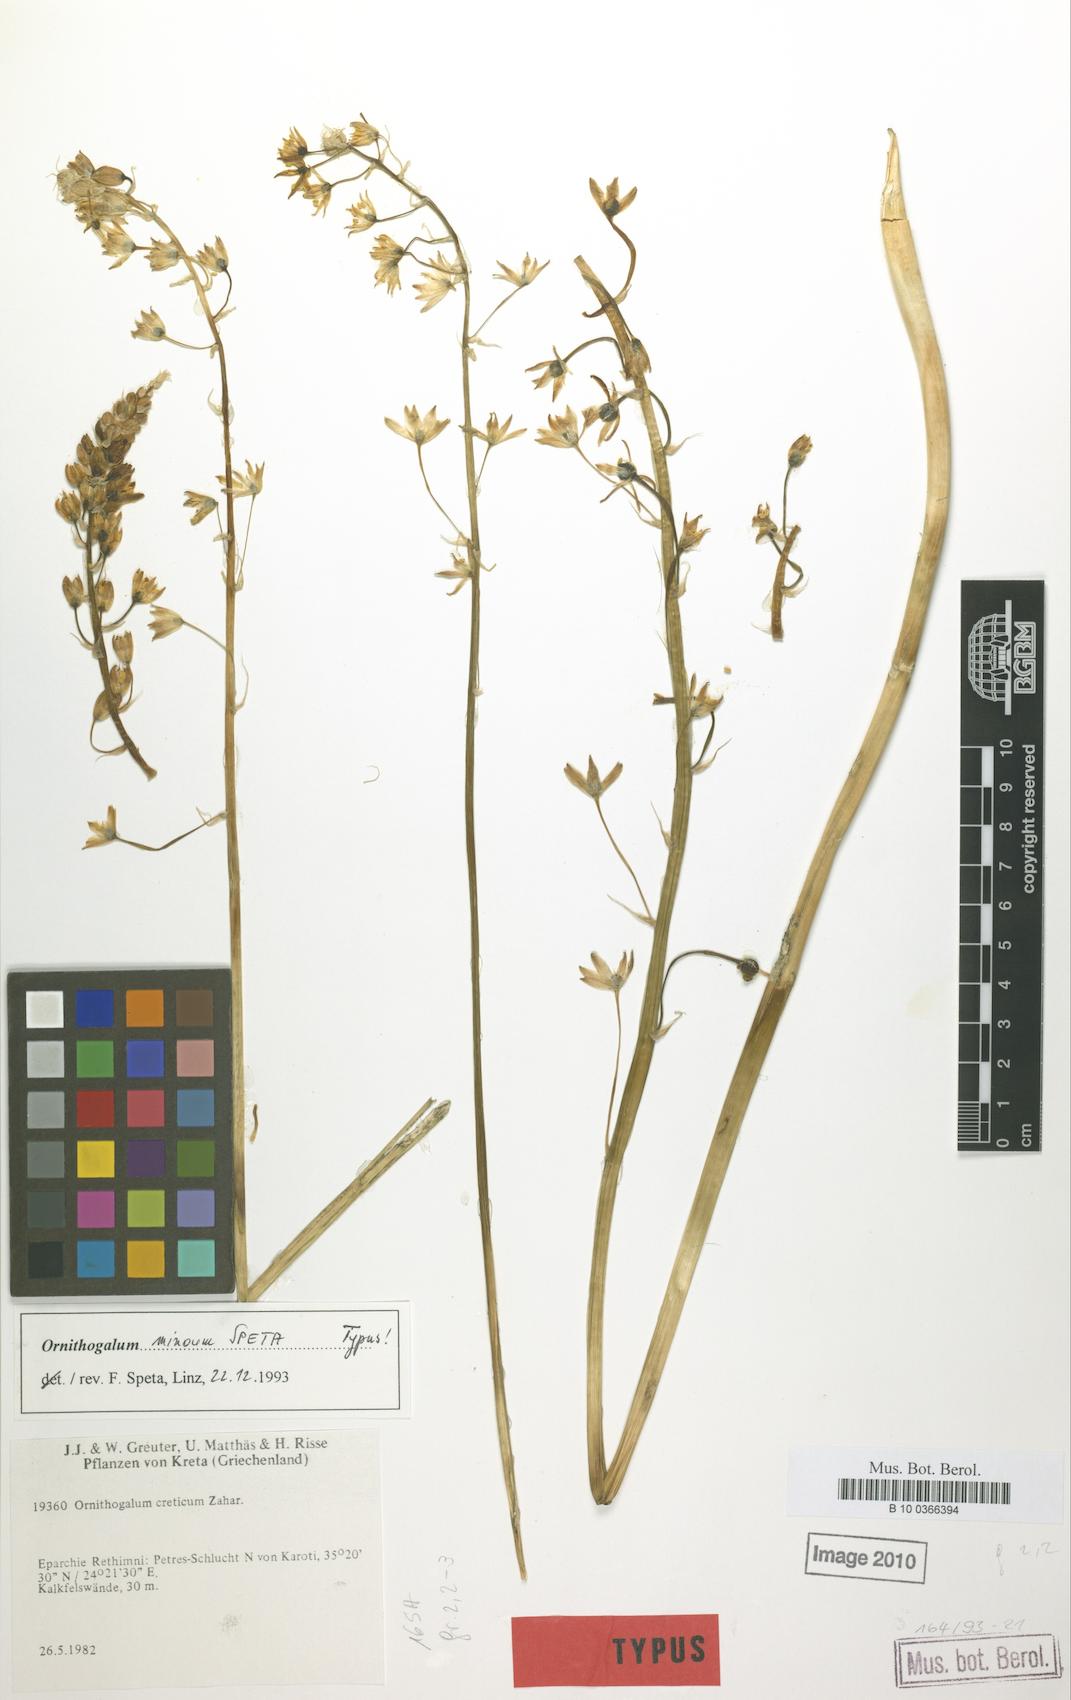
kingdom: Plantae
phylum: Tracheophyta
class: Liliopsida
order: Liliales
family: Liliaceae
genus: Gagea
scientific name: Gagea minima
